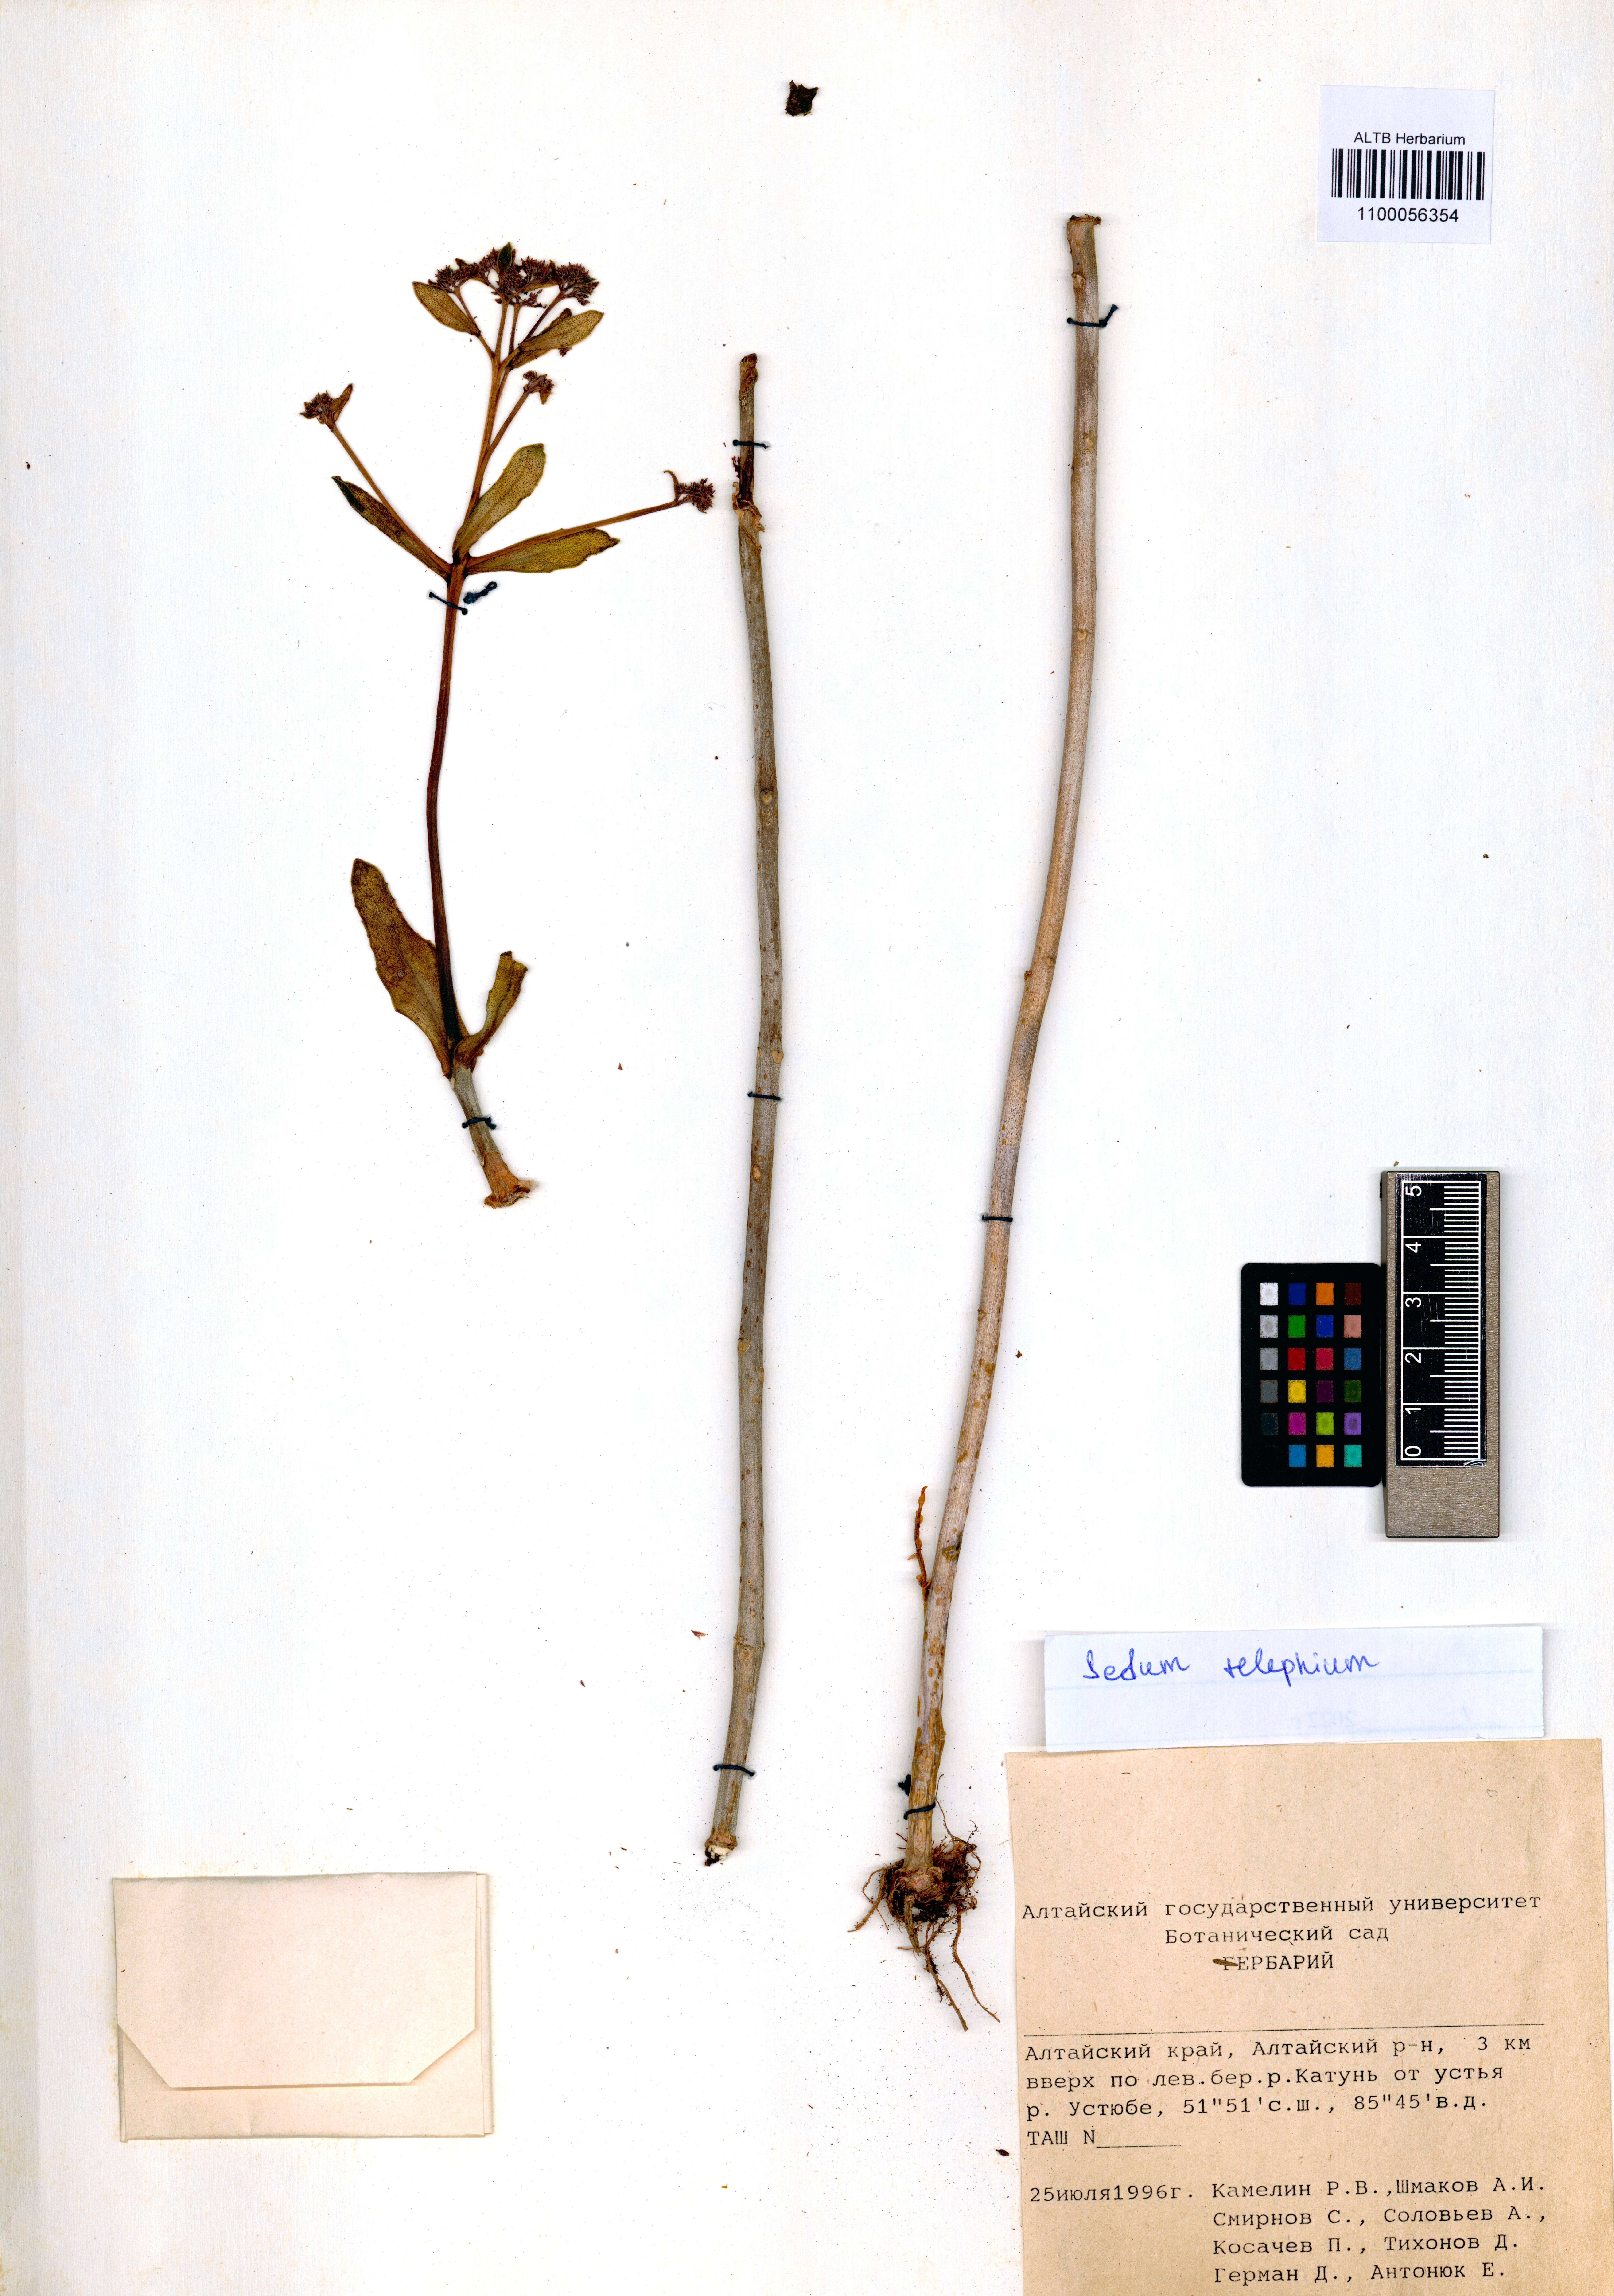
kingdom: Plantae
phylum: Tracheophyta
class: Magnoliopsida
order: Saxifragales
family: Crassulaceae
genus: Hylotelephium
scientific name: Hylotelephium telephium
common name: Live-forever
